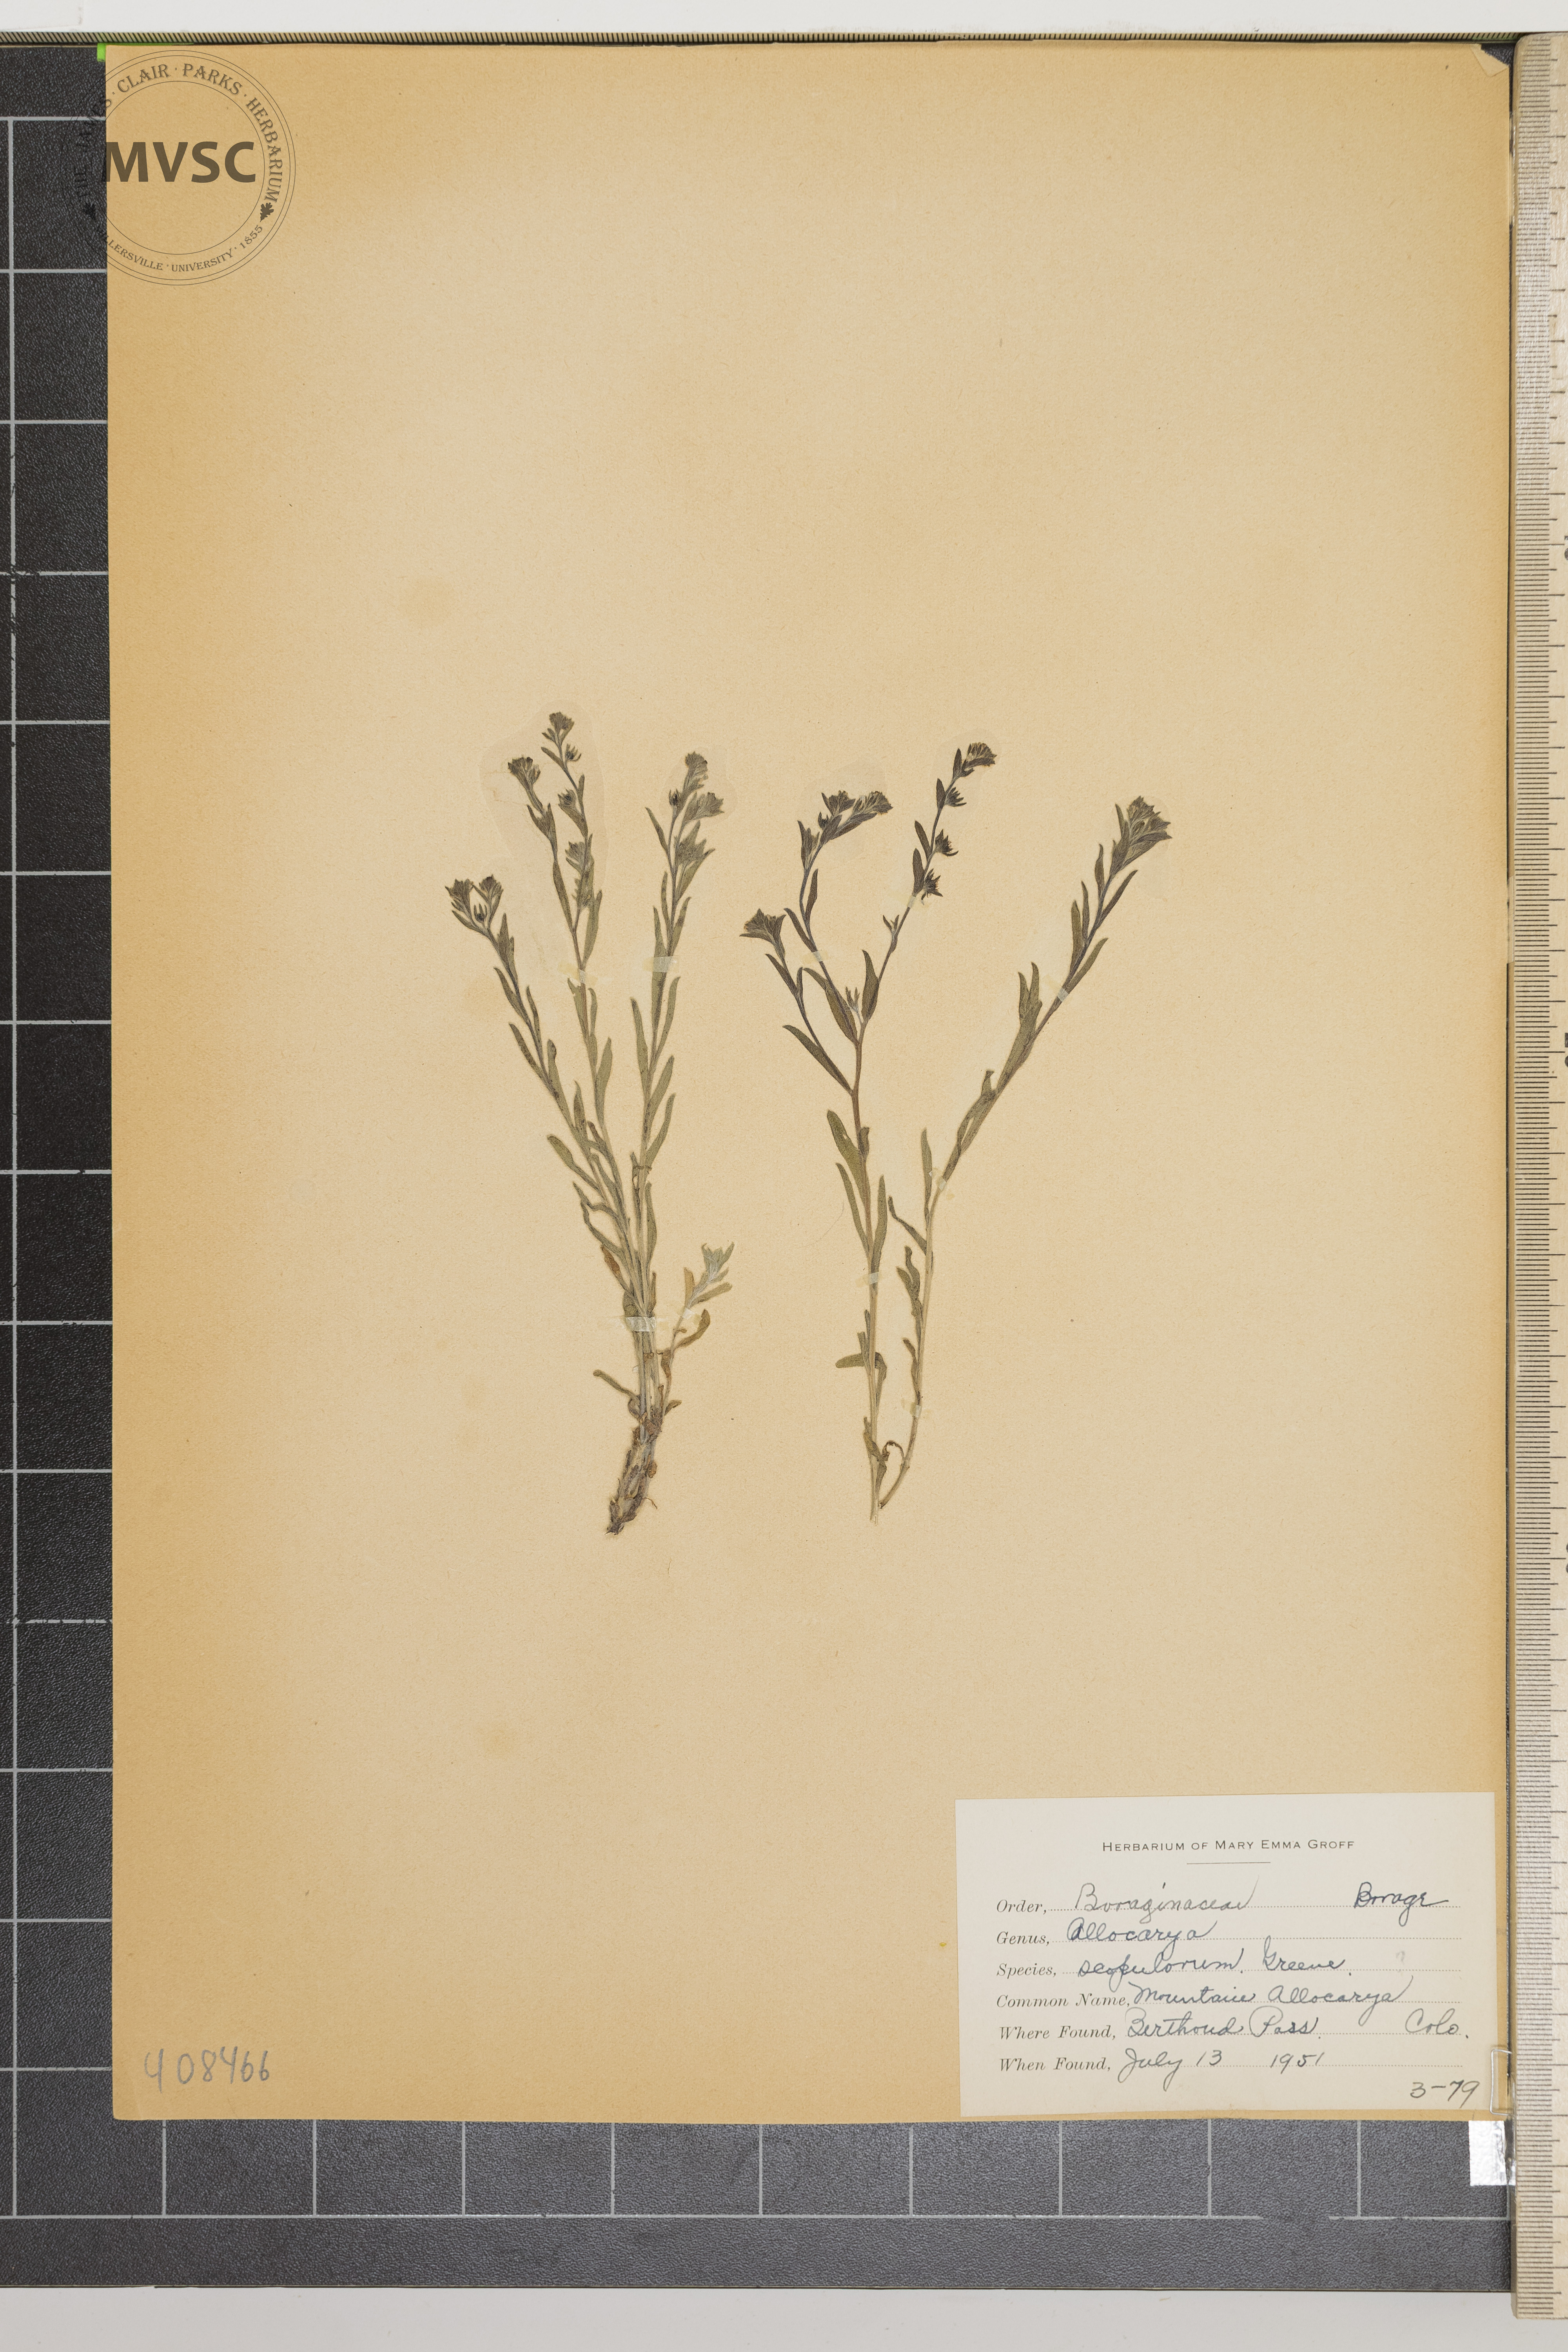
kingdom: Plantae
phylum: Tracheophyta
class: Magnoliopsida
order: Boraginales
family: Boraginaceae
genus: Plagiobothrys
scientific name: Plagiobothrys scouleri
